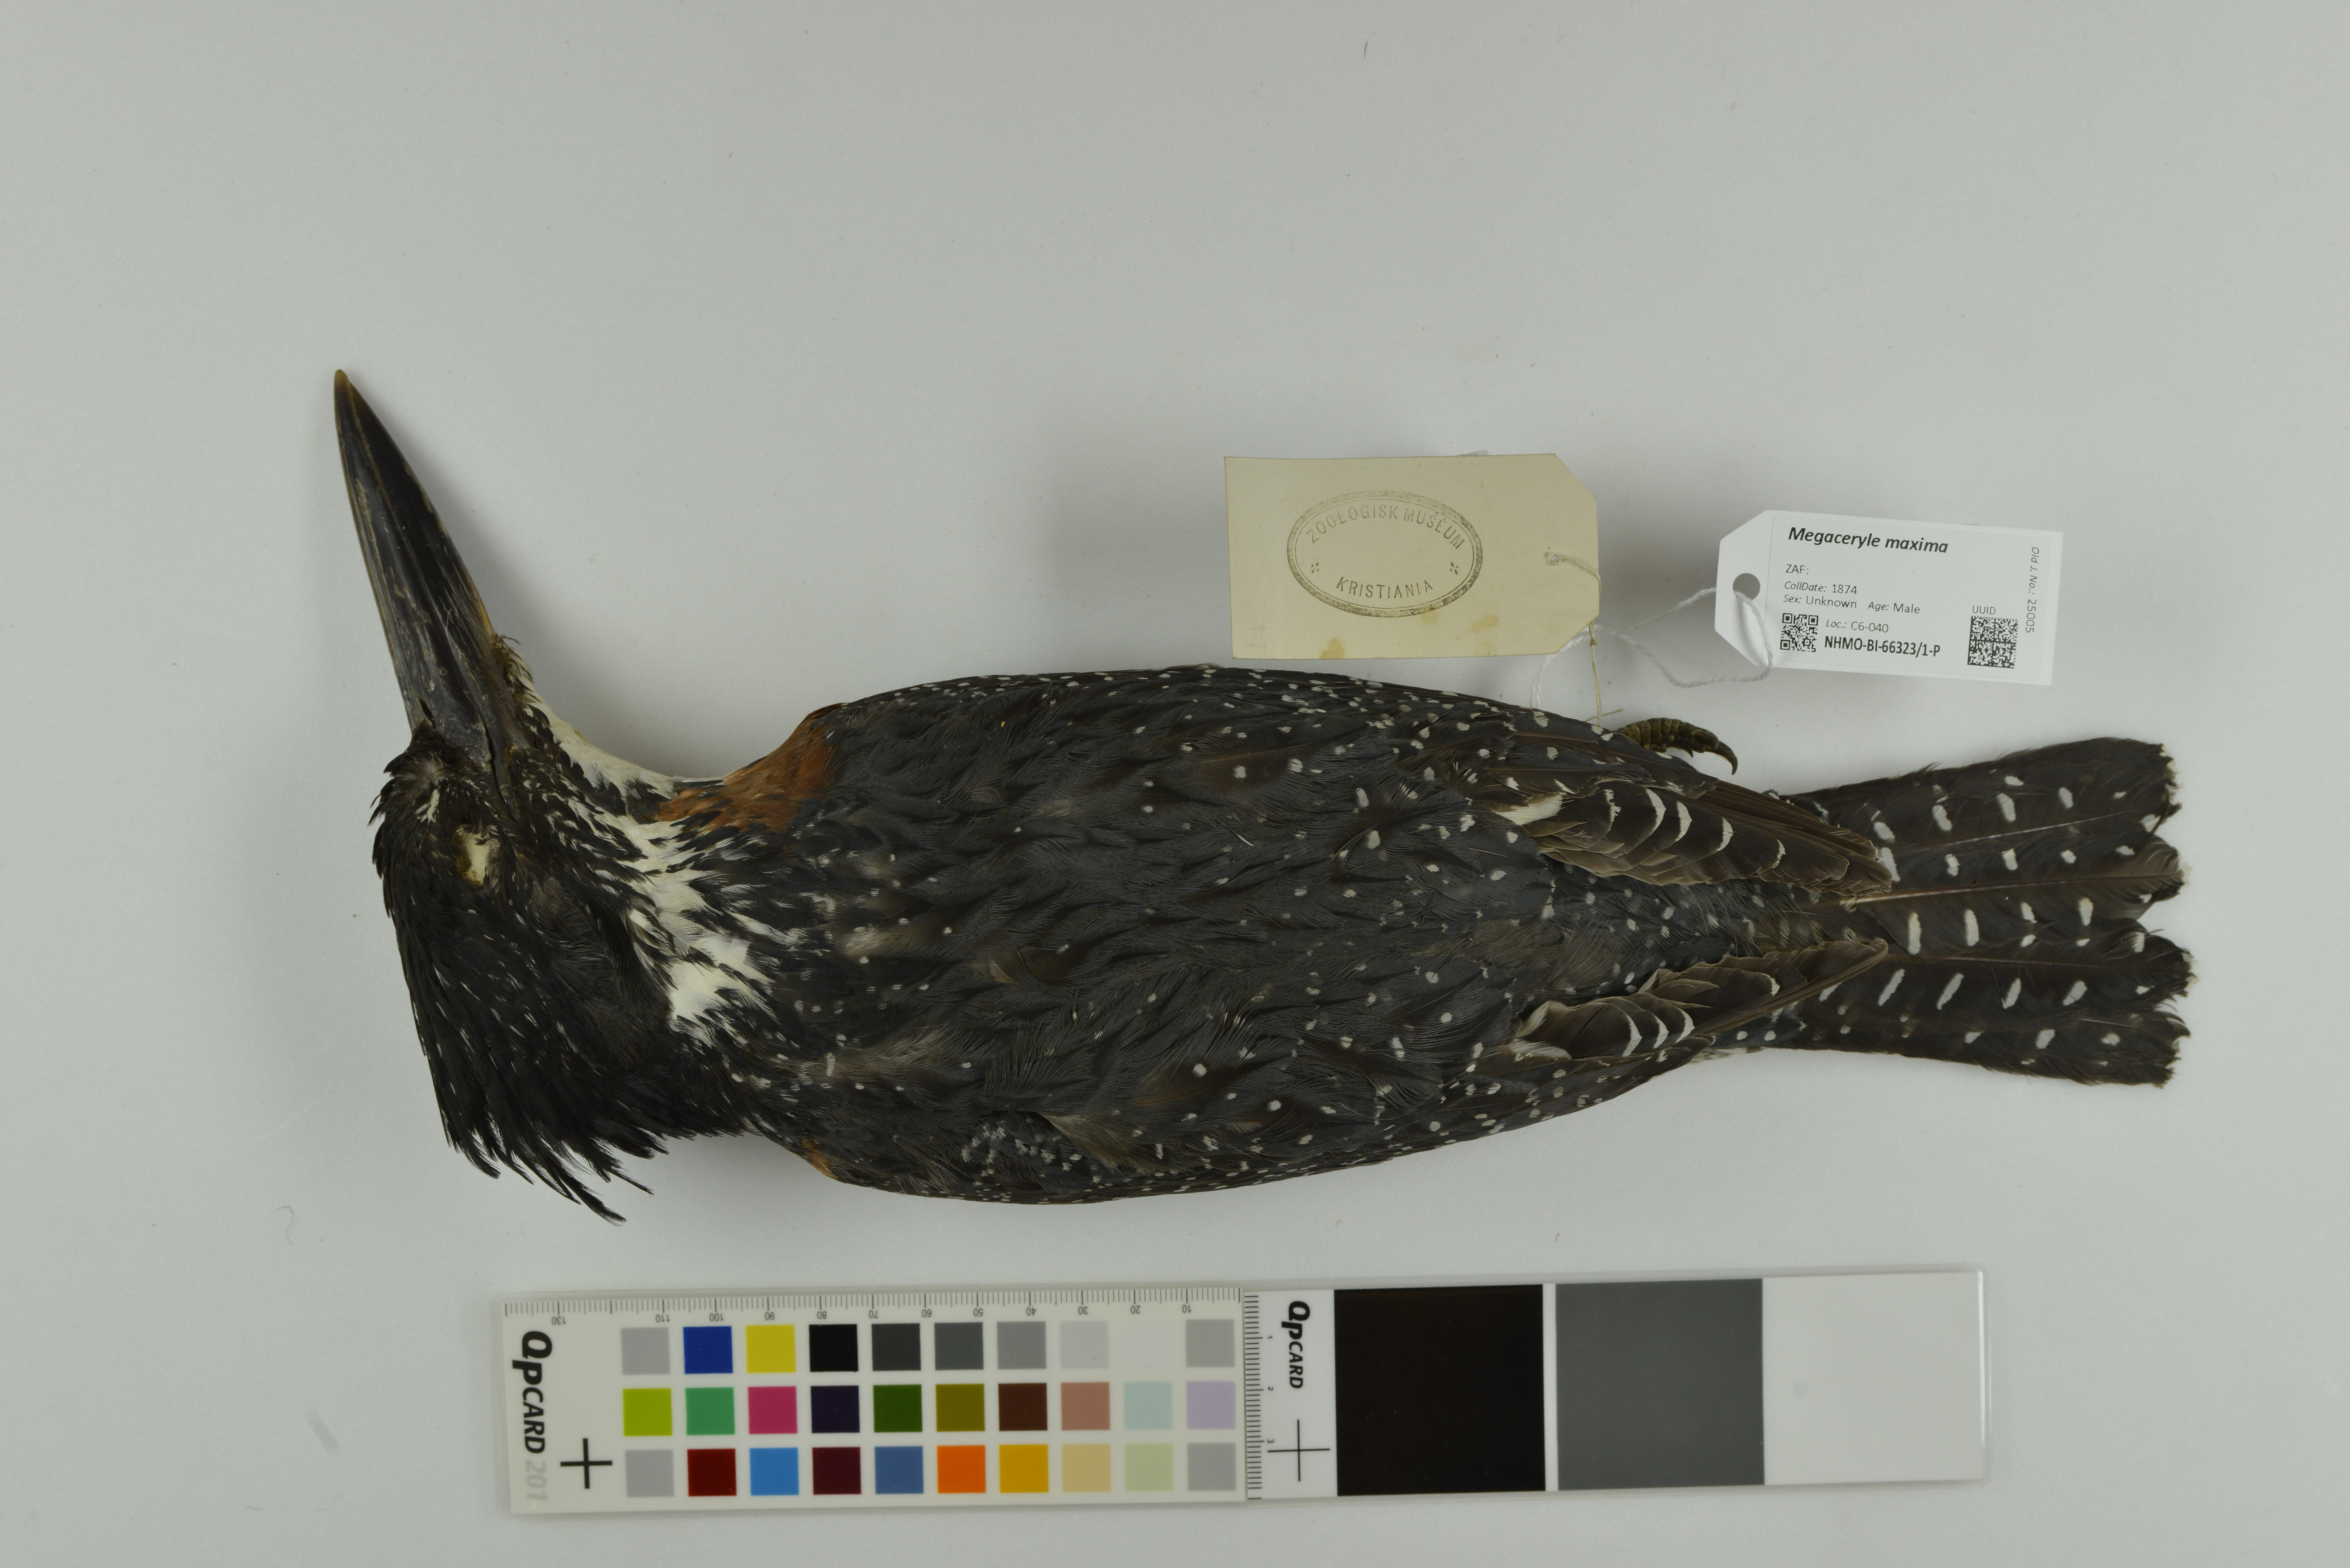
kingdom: Animalia
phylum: Chordata
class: Aves
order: Coraciiformes
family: Alcedinidae
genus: Megaceryle
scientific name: Megaceryle maxima
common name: Giant kingfisher
